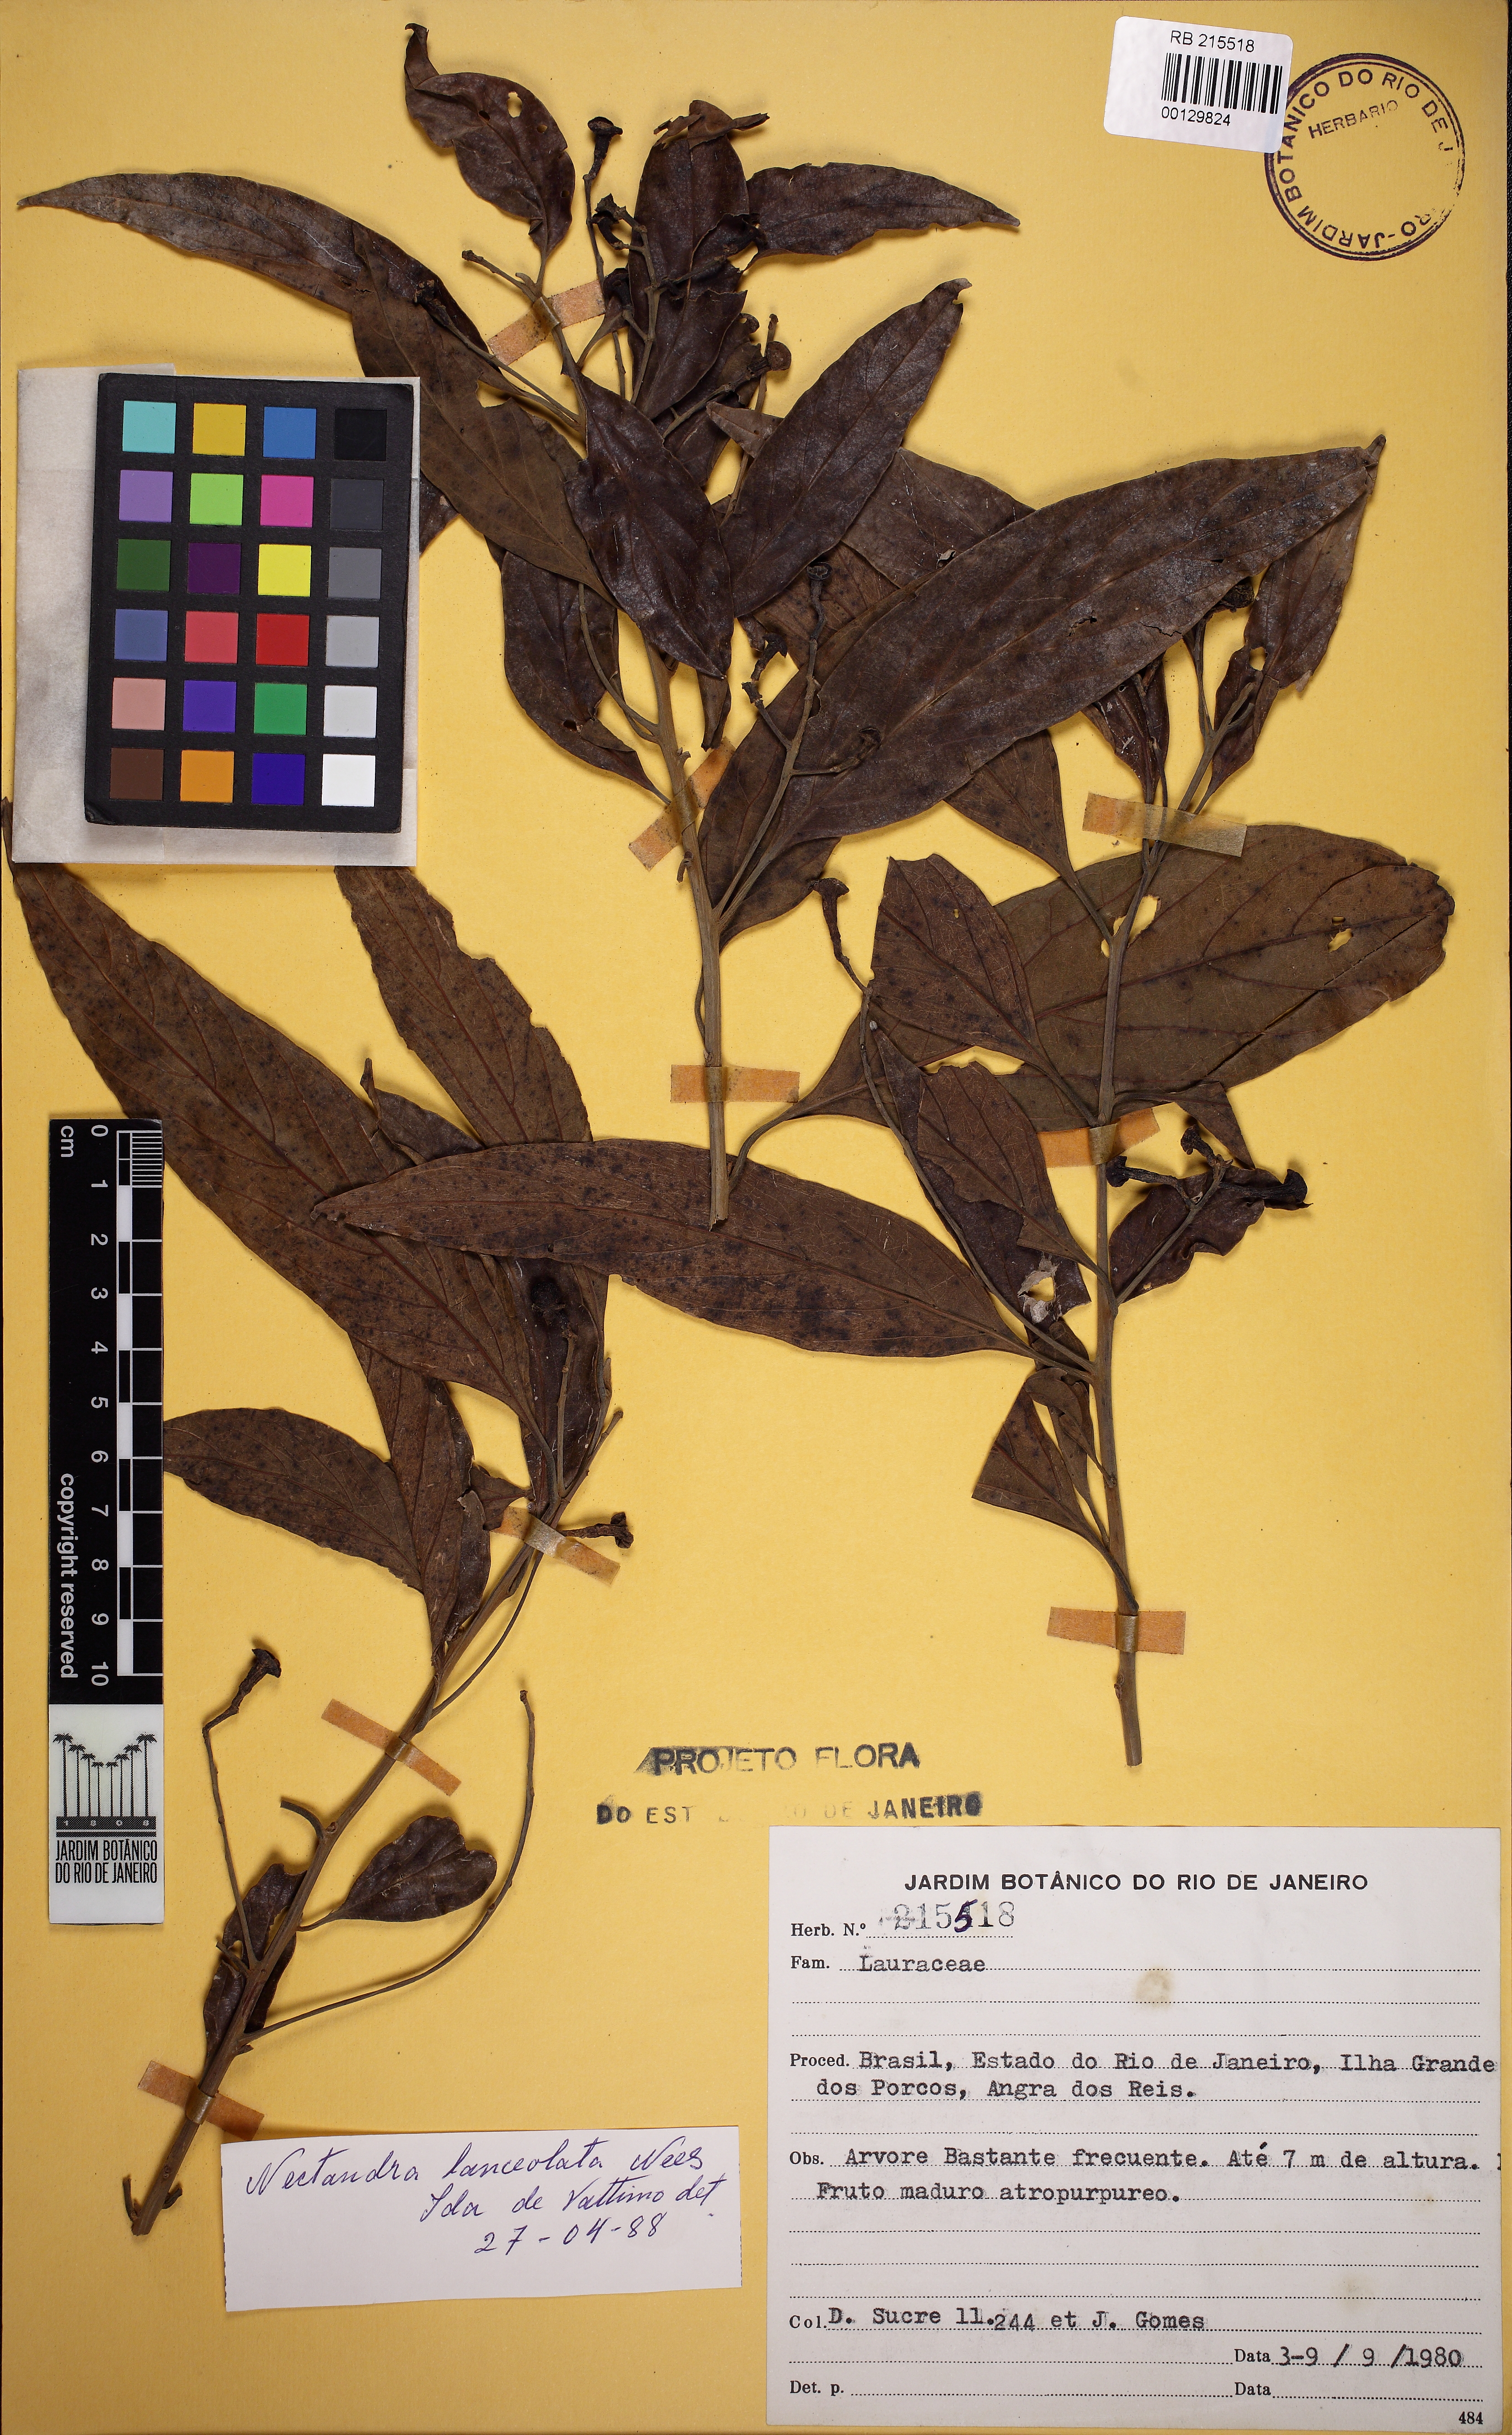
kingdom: Plantae
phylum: Tracheophyta
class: Magnoliopsida
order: Laurales
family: Lauraceae
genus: Nectandra
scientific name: Nectandra lanceolata
